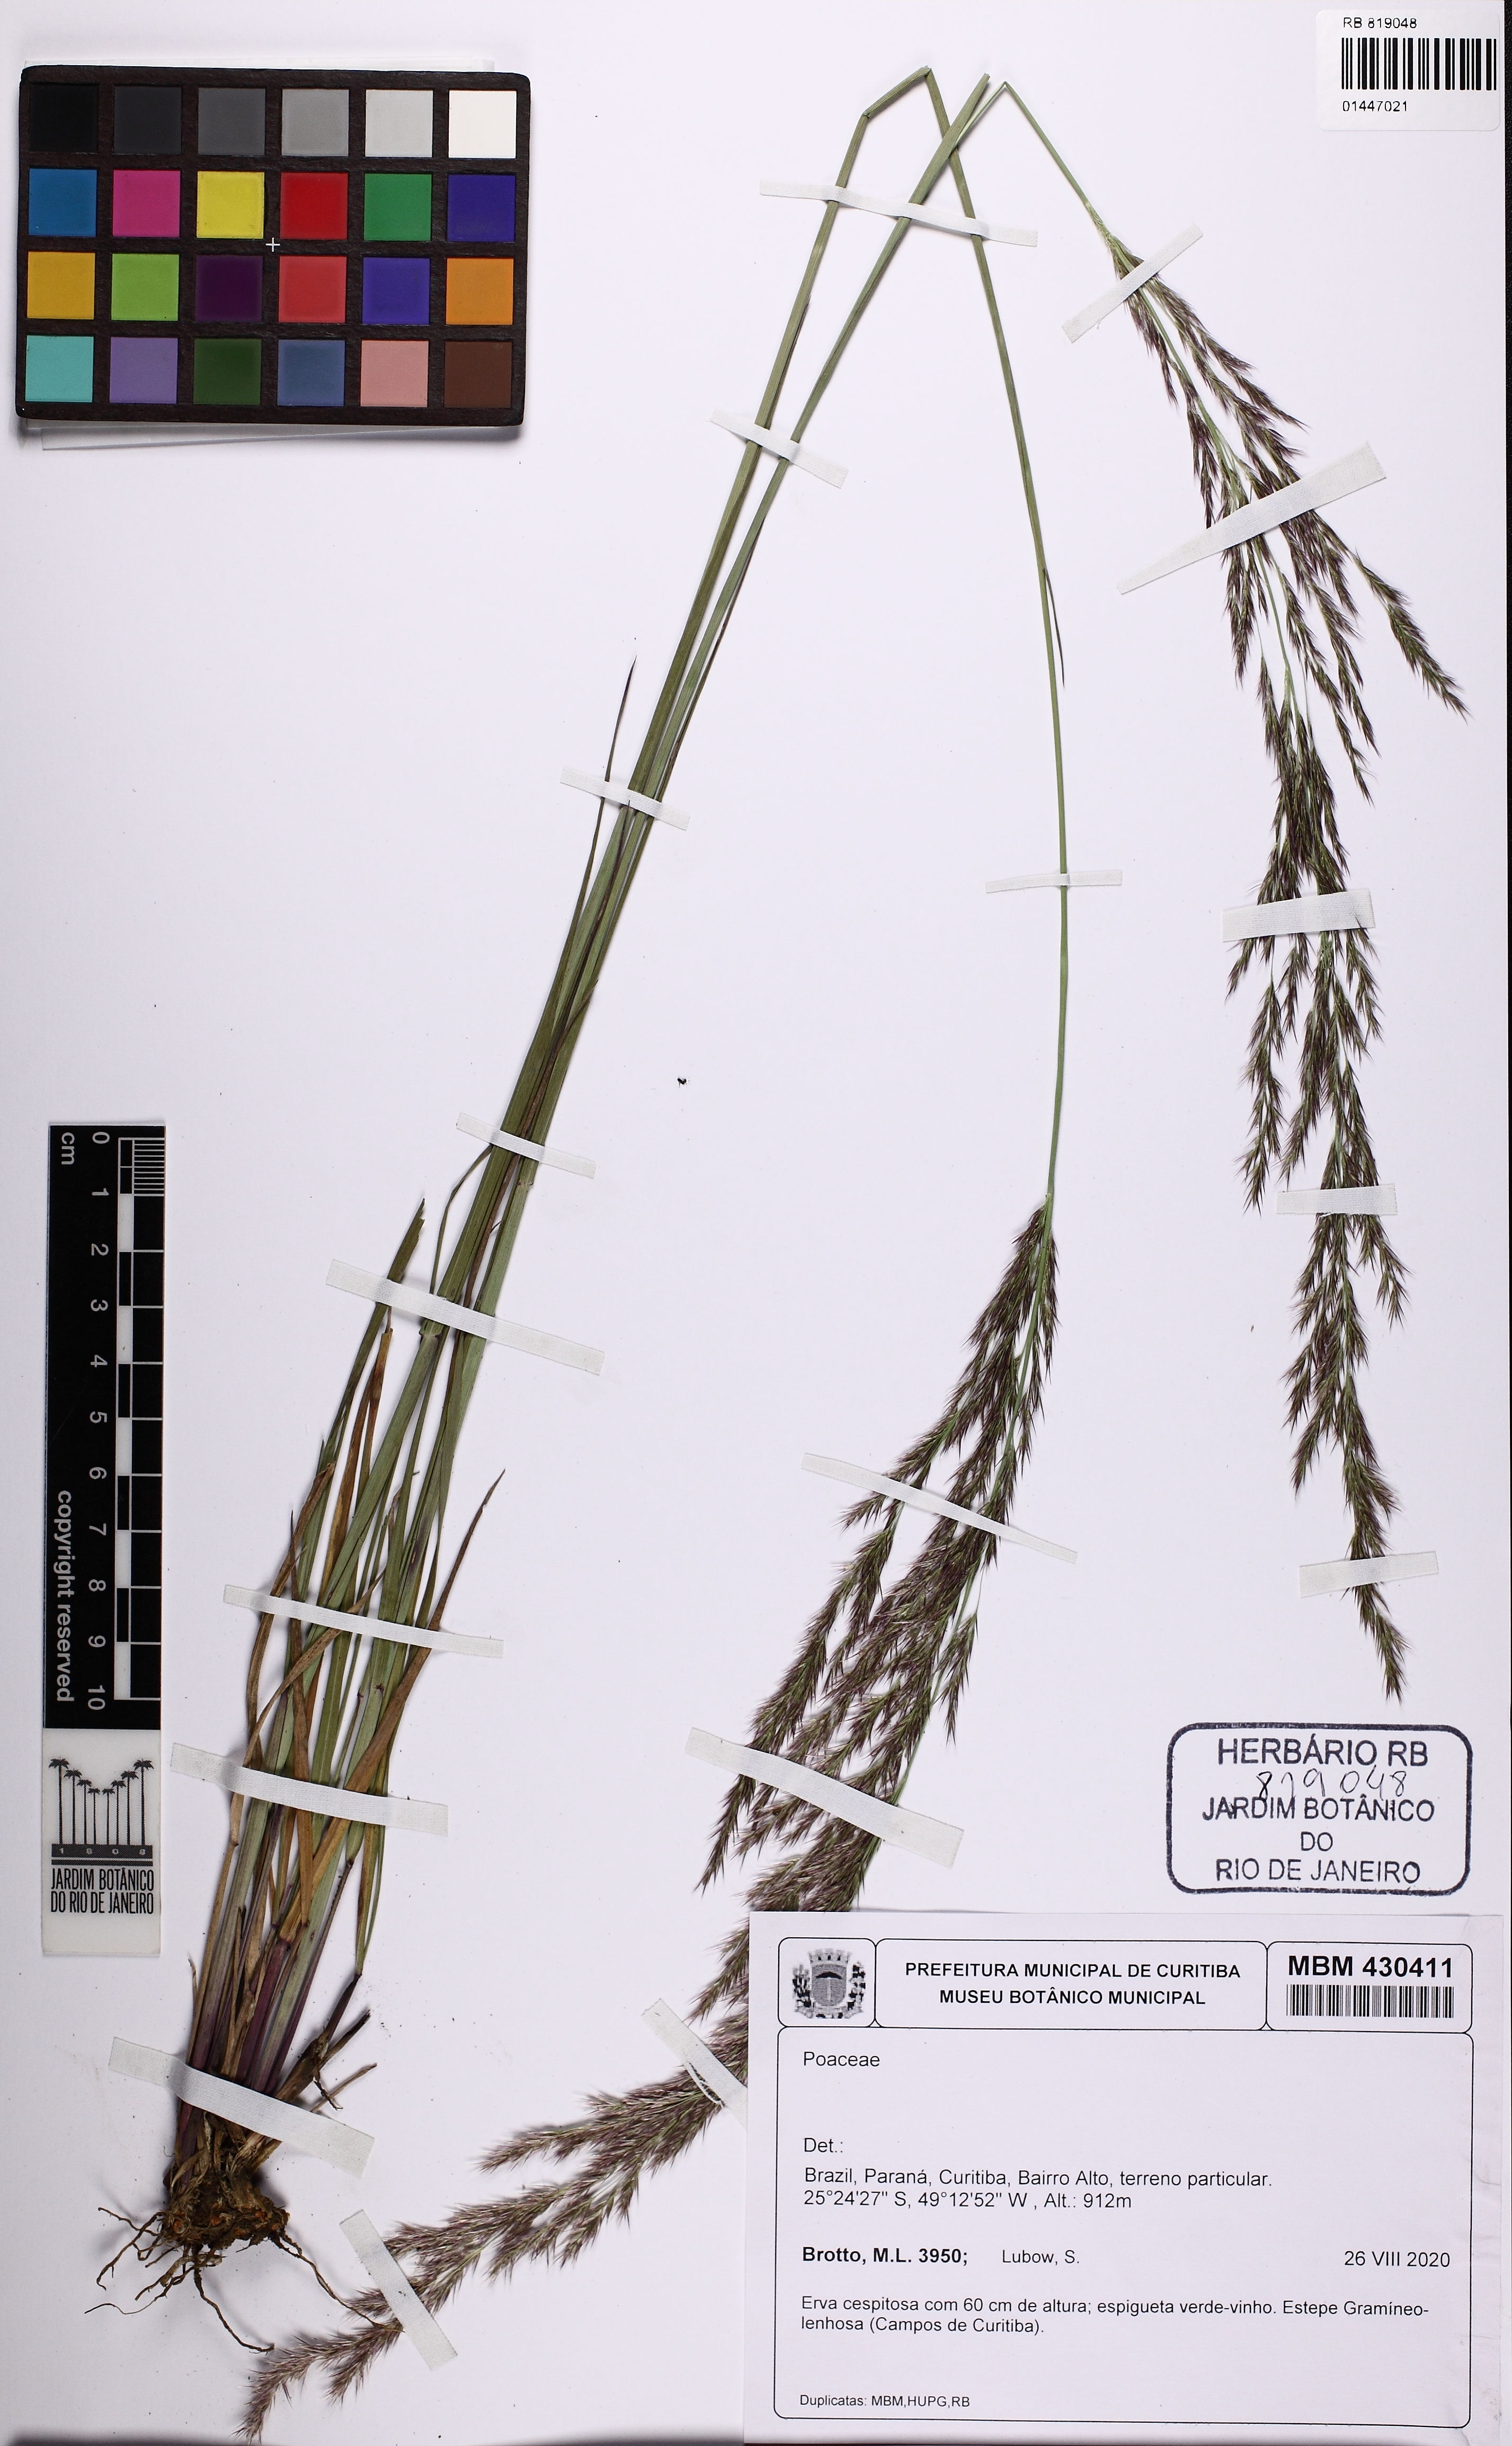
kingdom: Plantae
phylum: Tracheophyta
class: Liliopsida
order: Poales
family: Poaceae
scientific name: Poaceae
